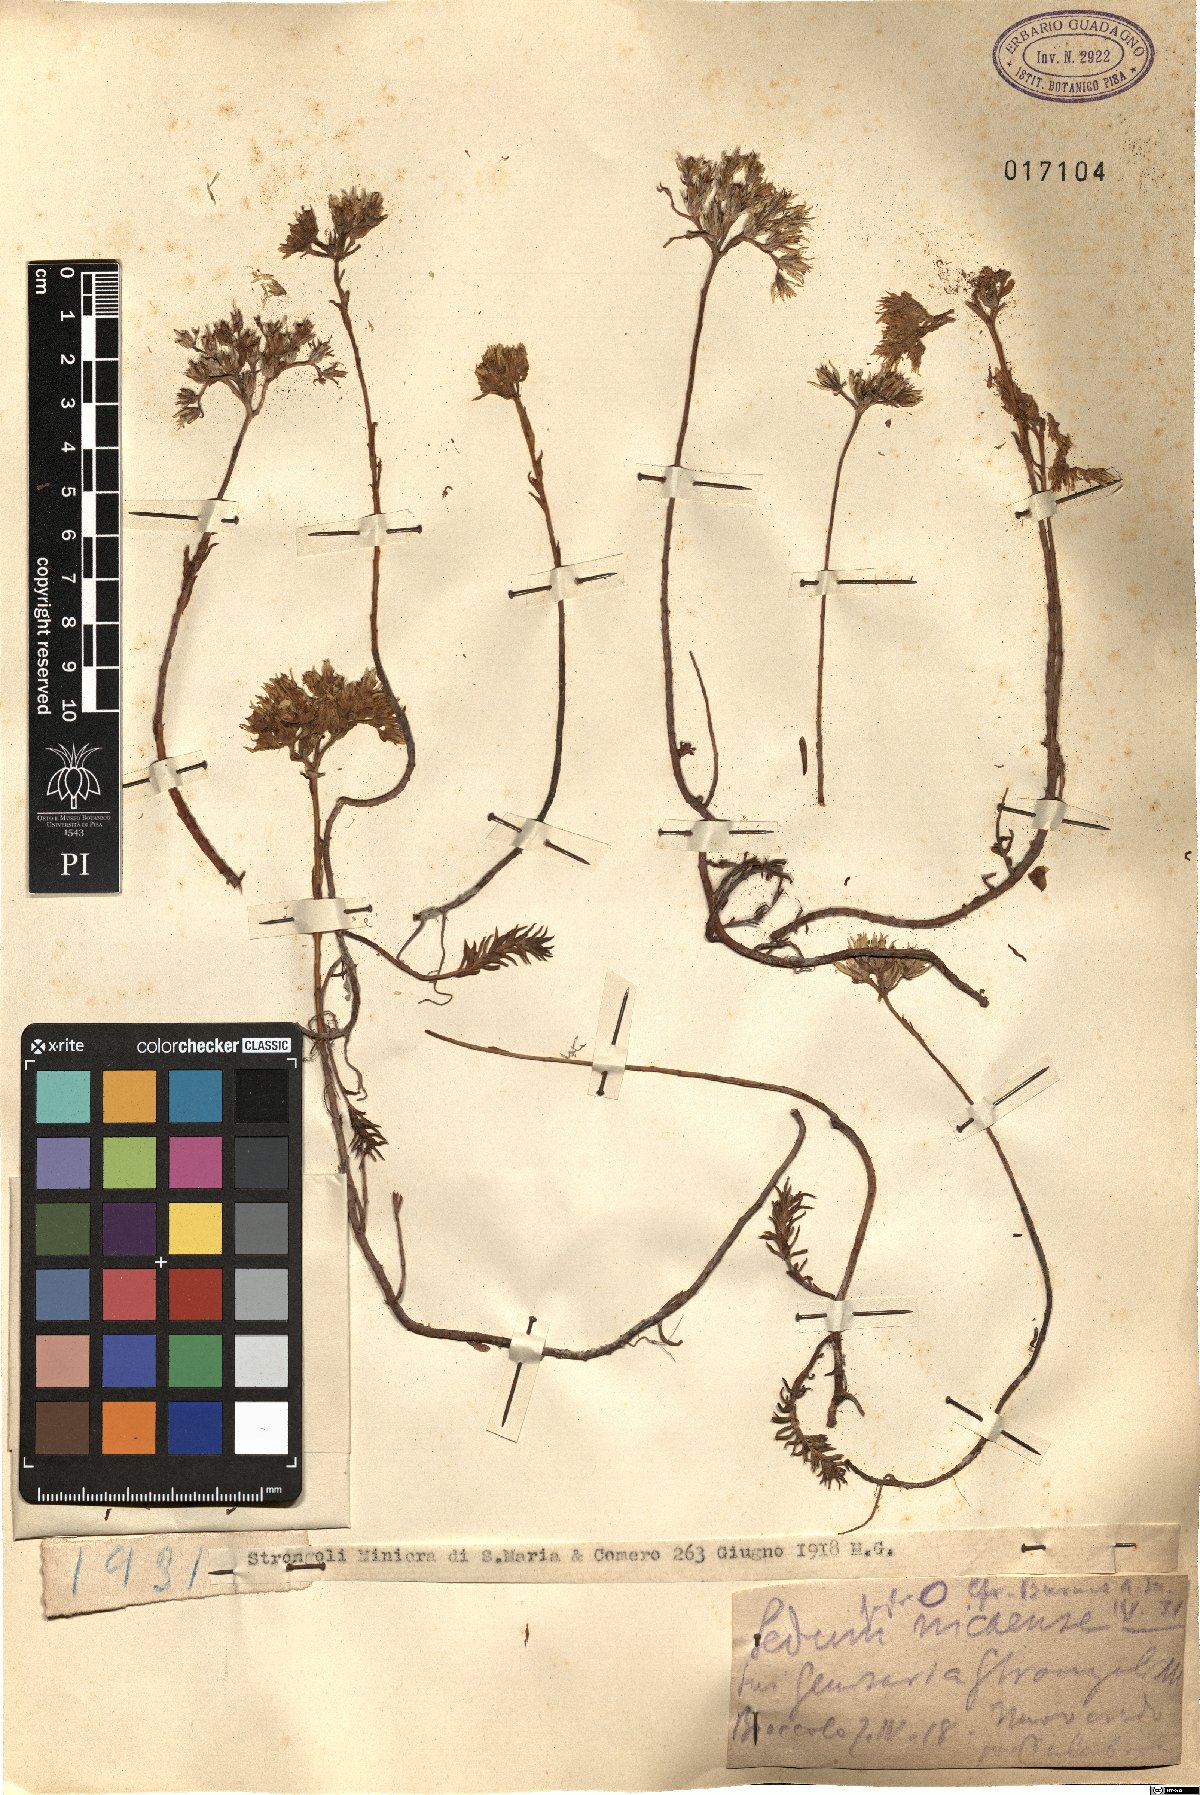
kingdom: Plantae
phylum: Tracheophyta
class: Magnoliopsida
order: Saxifragales
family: Crassulaceae
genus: Petrosedum
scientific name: Petrosedum luteolum
